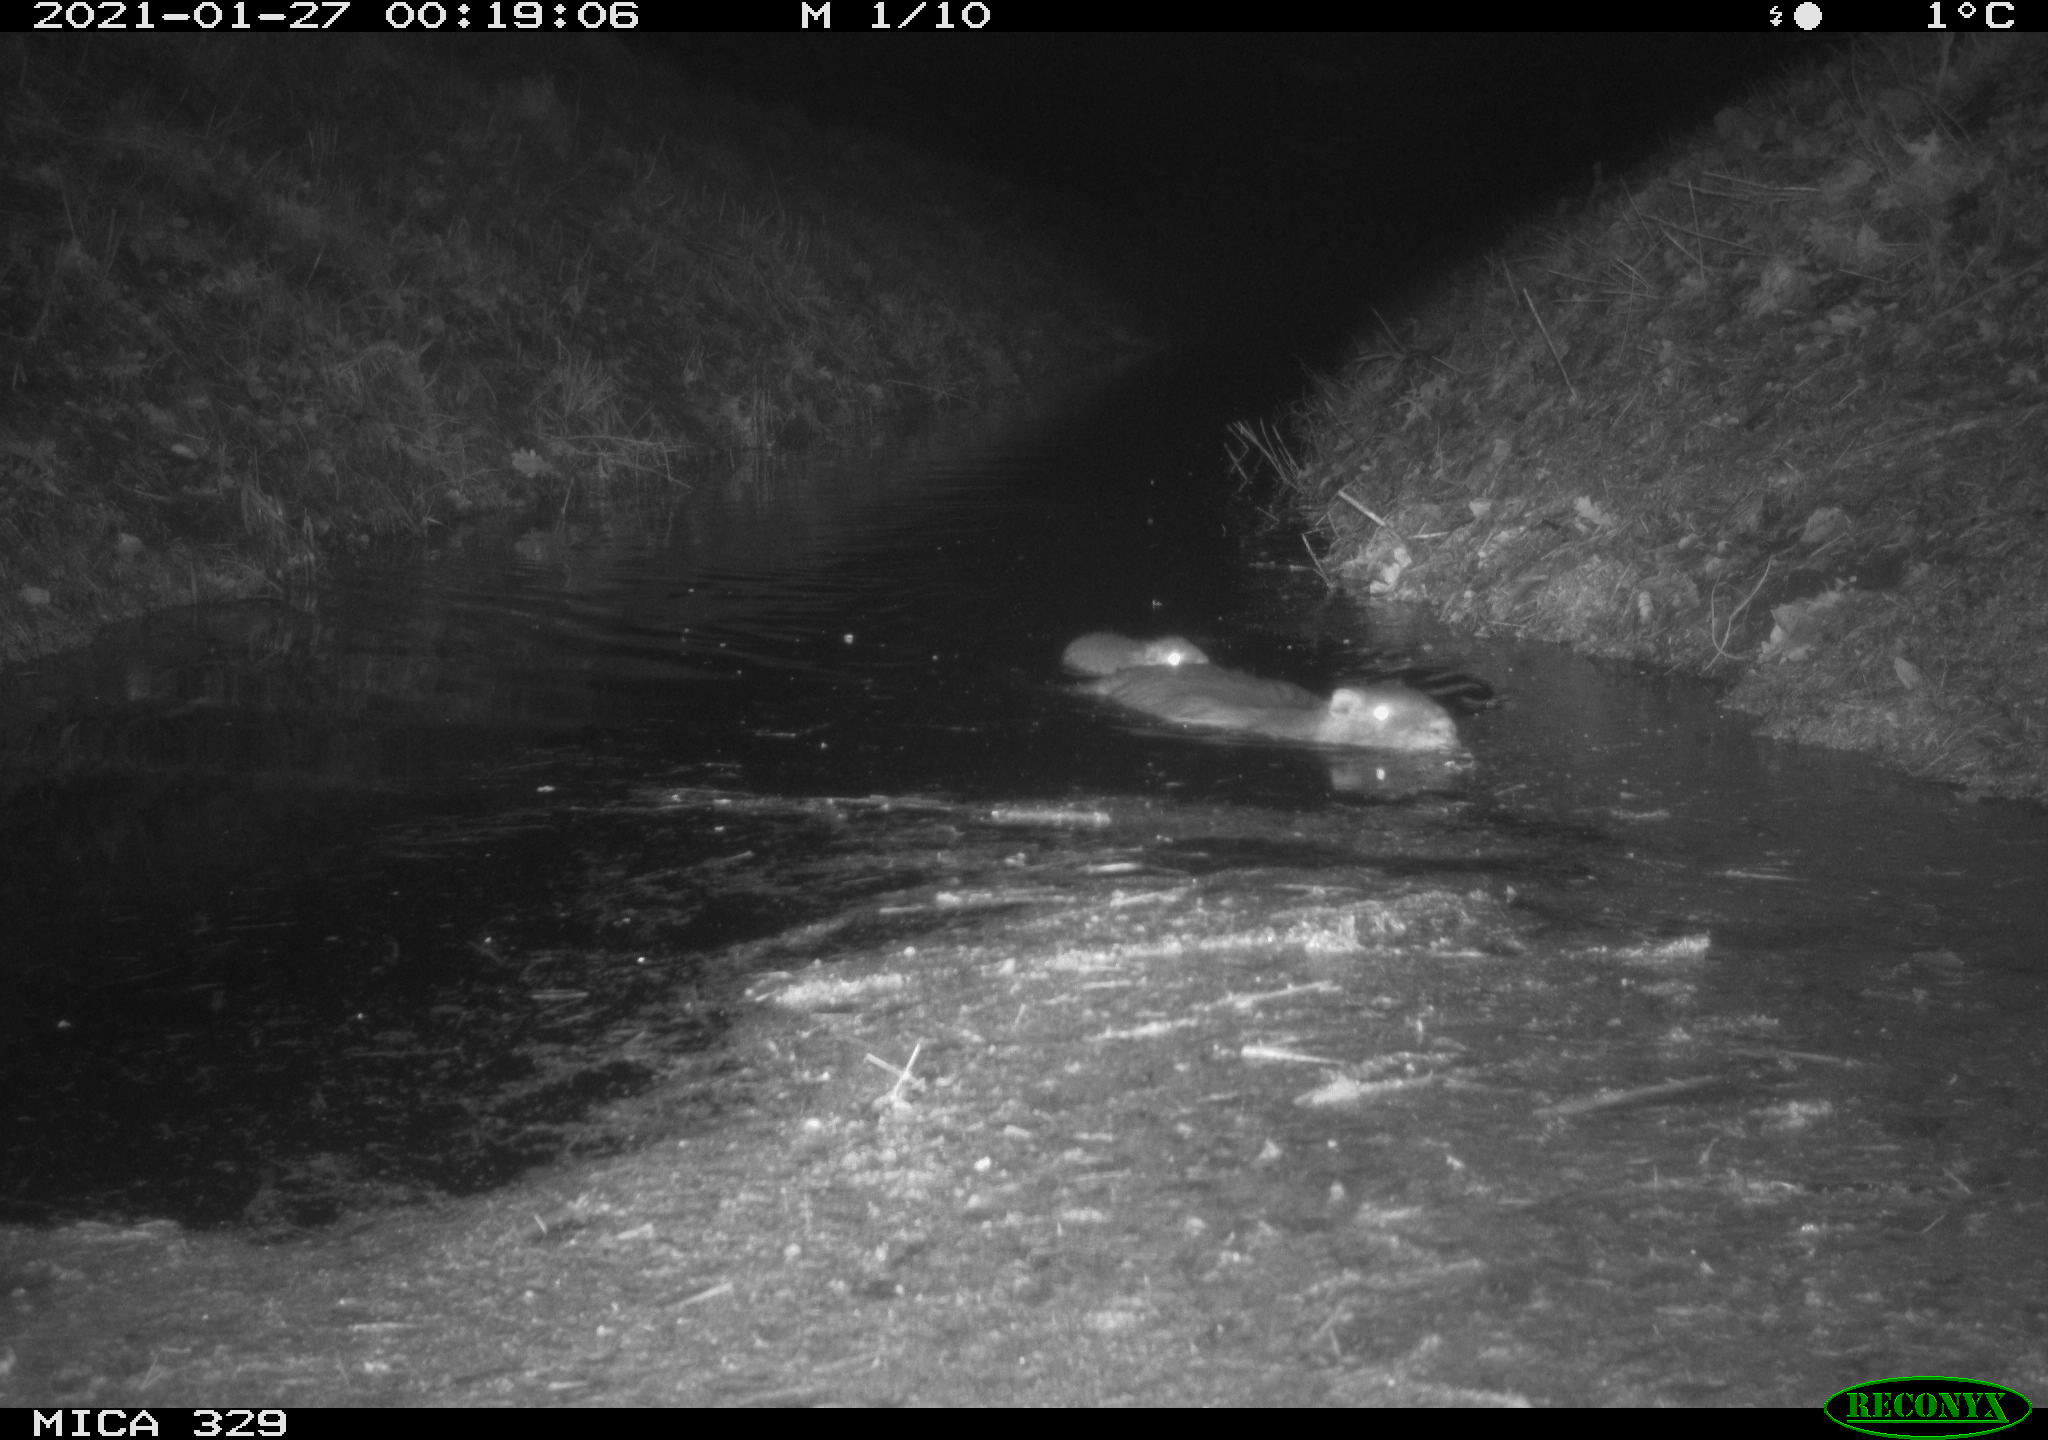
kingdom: Animalia
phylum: Chordata
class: Mammalia
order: Rodentia
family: Myocastoridae
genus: Myocastor
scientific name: Myocastor coypus
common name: Coypu
